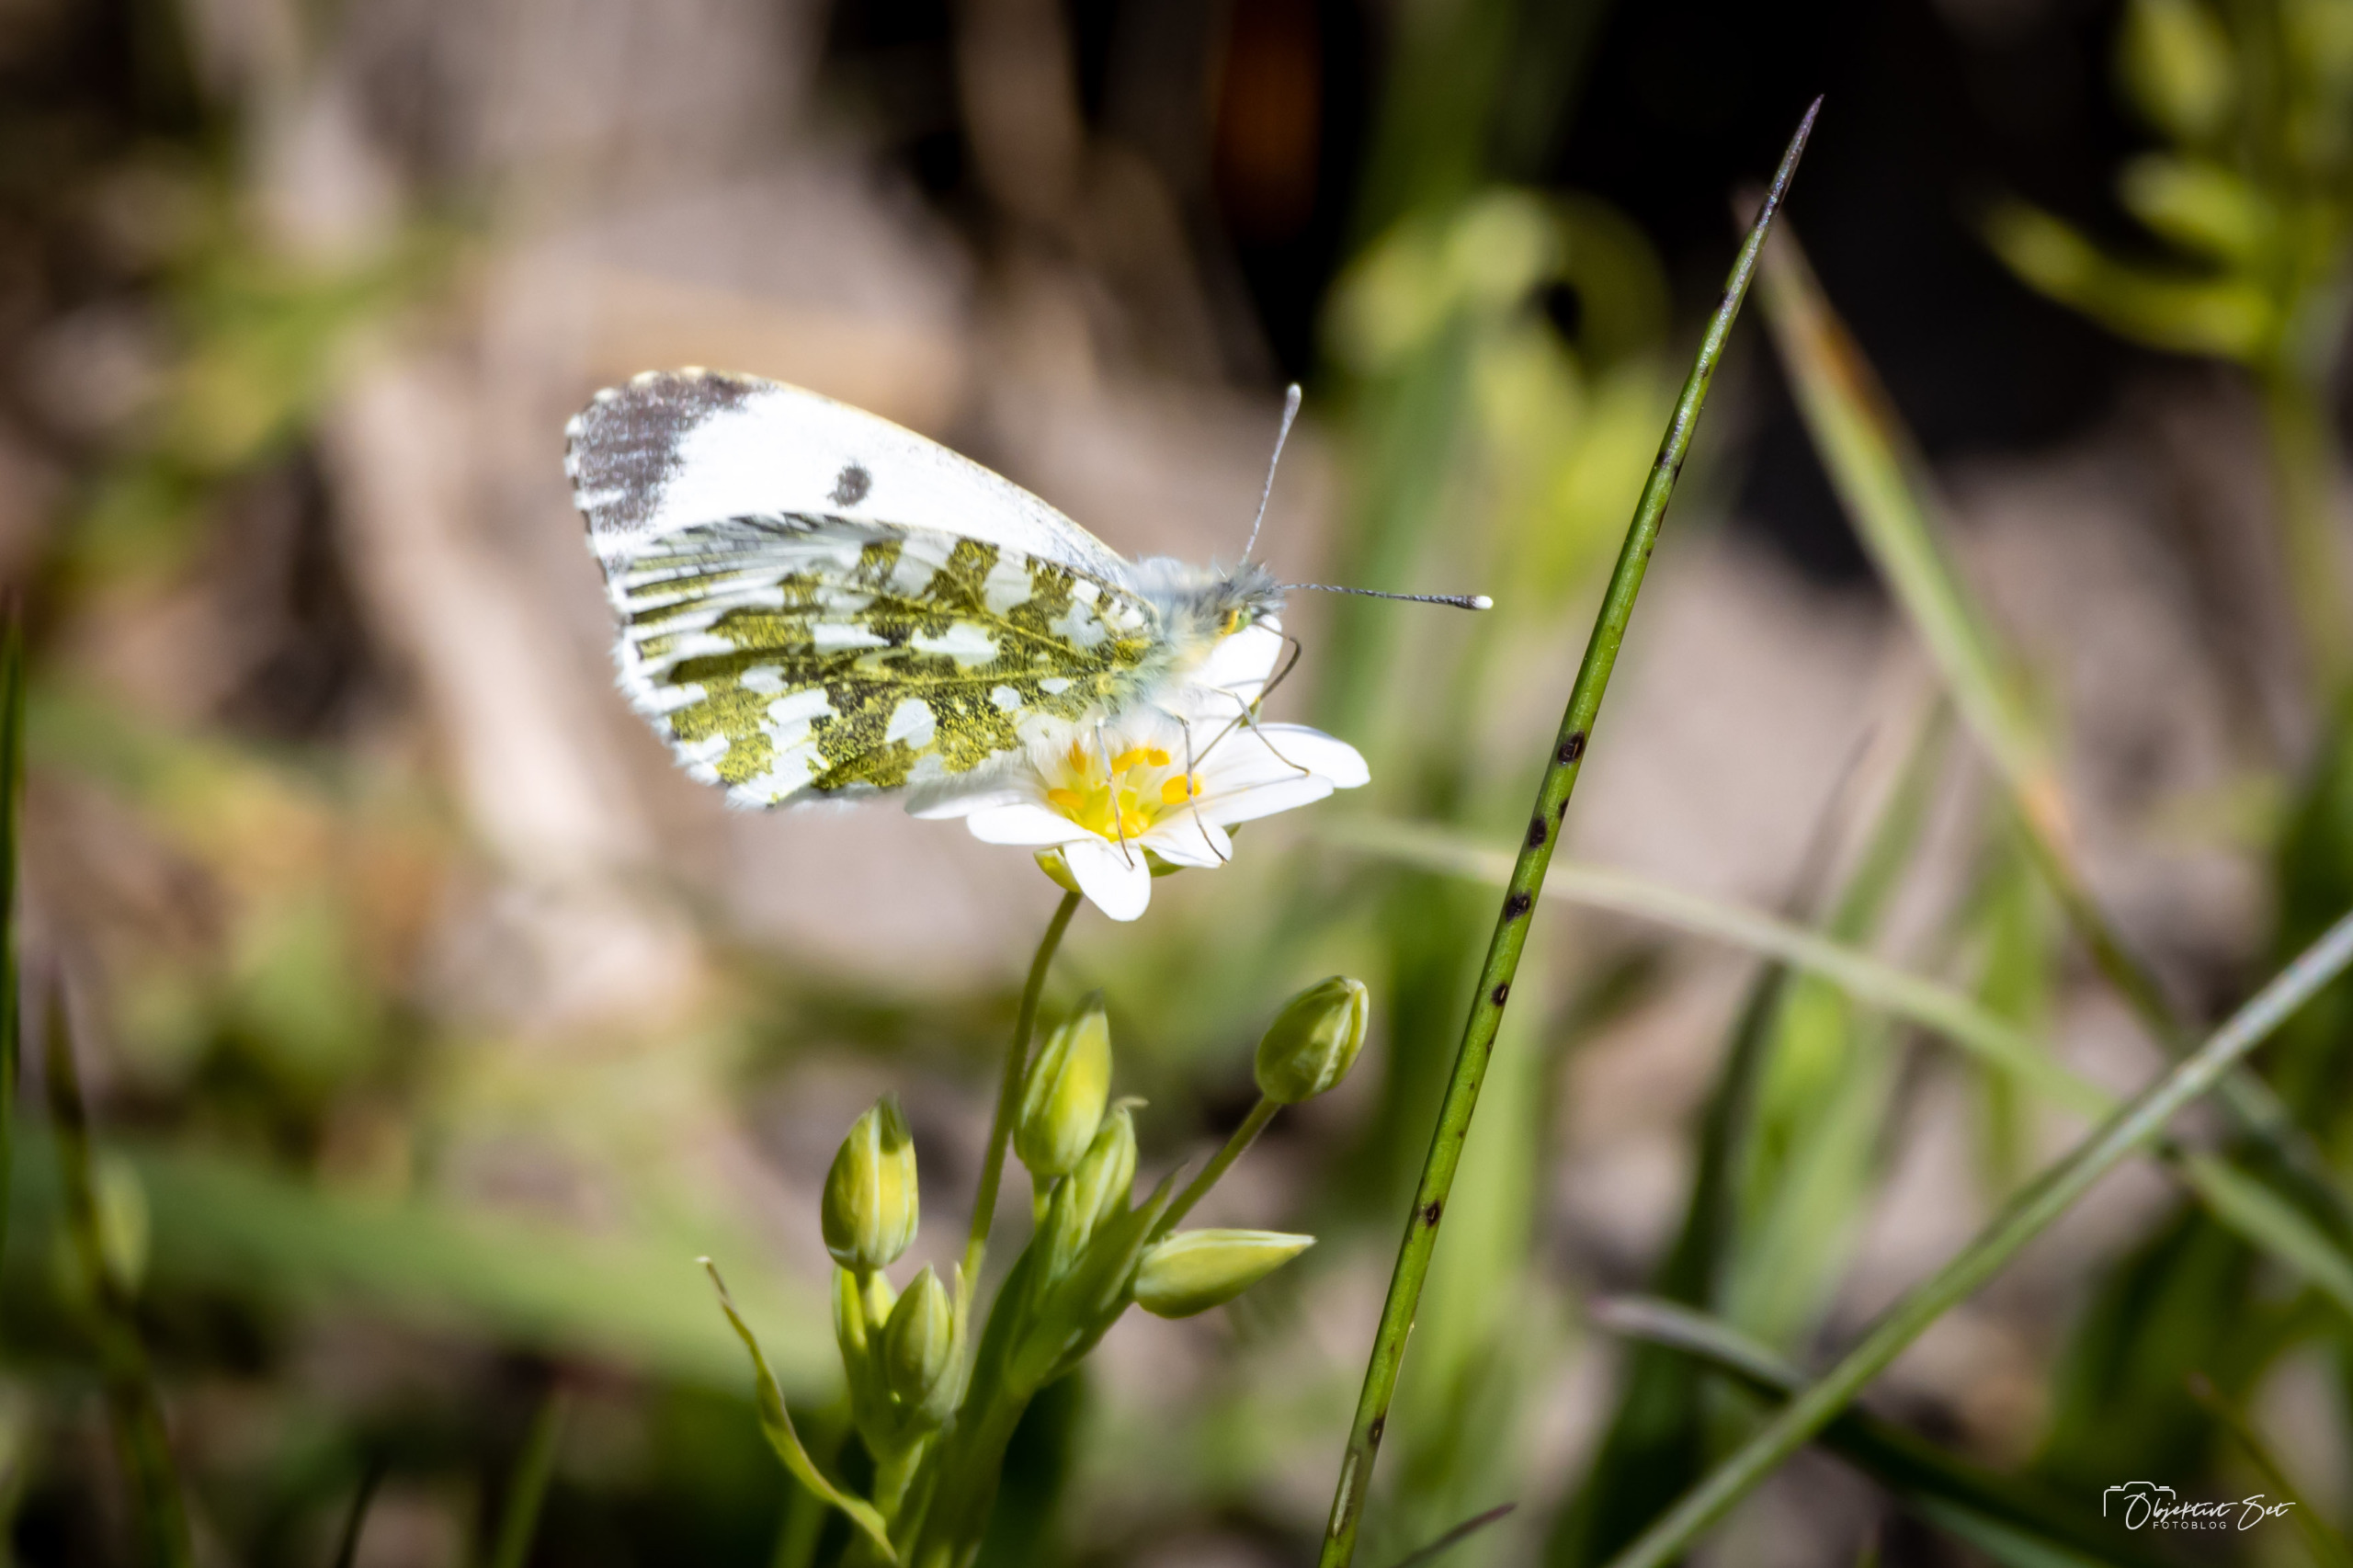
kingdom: Animalia
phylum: Arthropoda
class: Insecta
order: Lepidoptera
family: Pieridae
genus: Anthocharis
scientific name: Anthocharis cardamines
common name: Aurora
